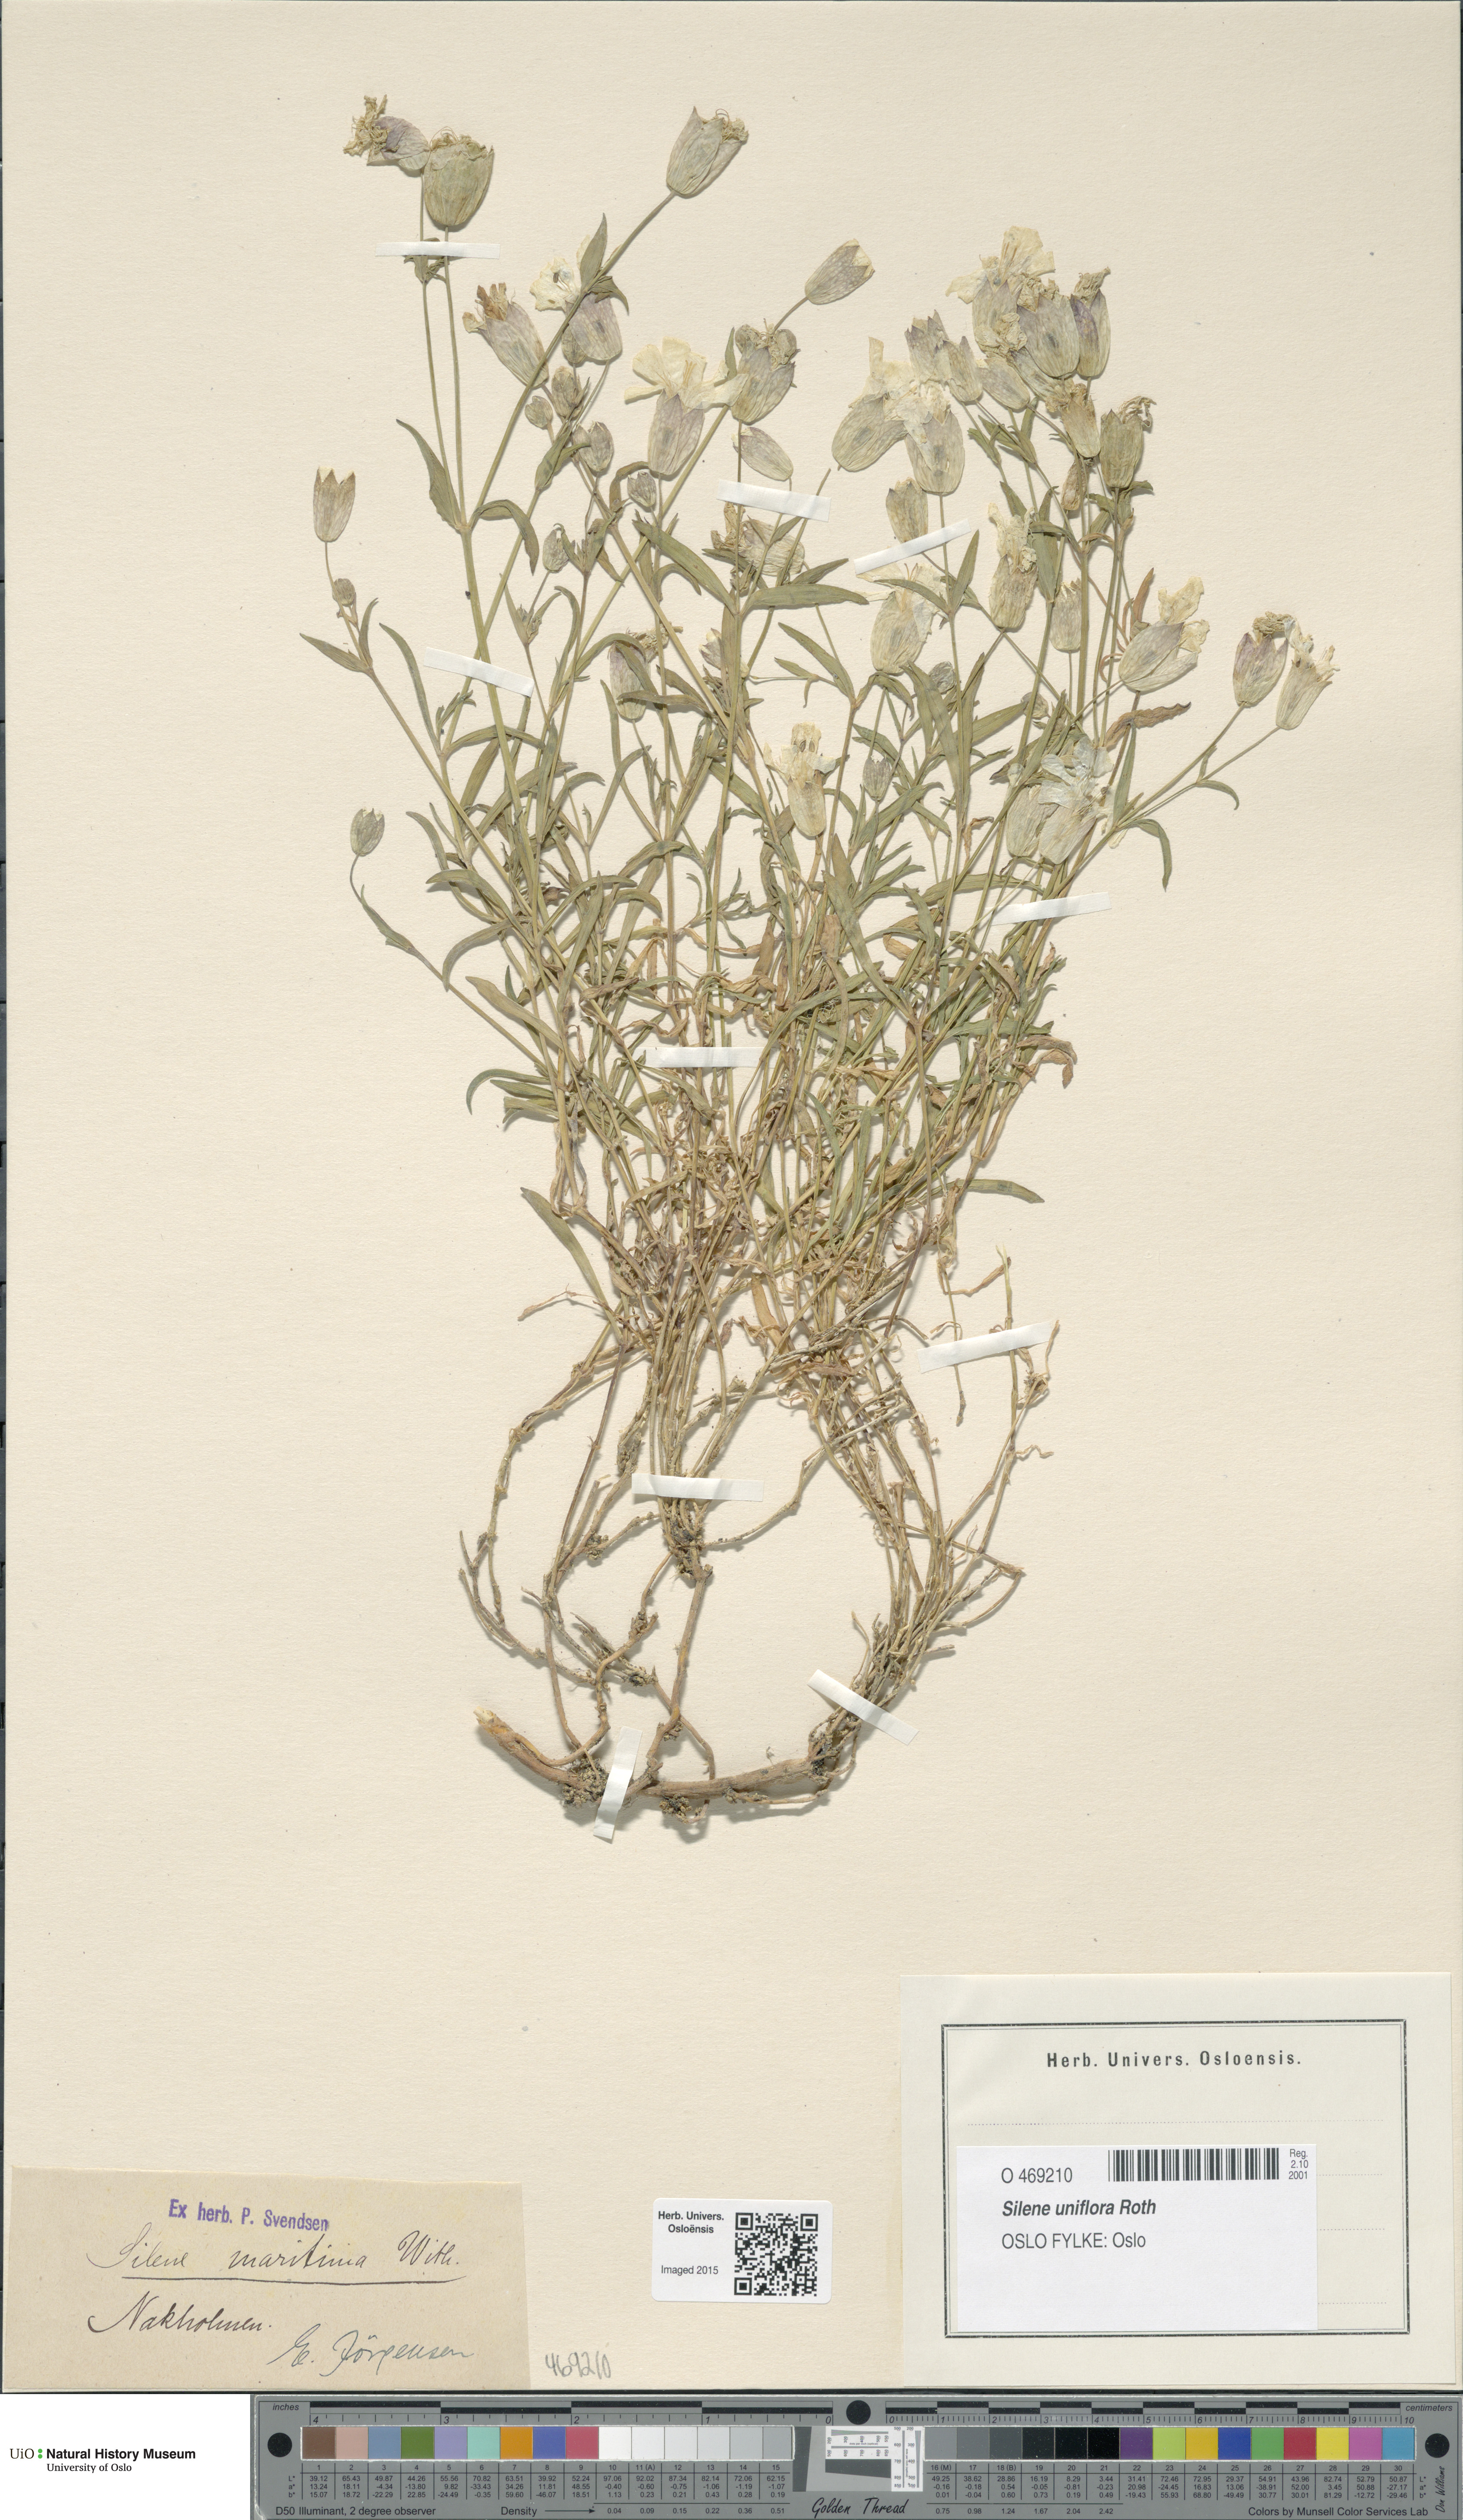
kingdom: Plantae
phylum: Tracheophyta
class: Magnoliopsida
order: Caryophyllales
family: Caryophyllaceae
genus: Silene
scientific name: Silene uniflora
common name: Sea campion
